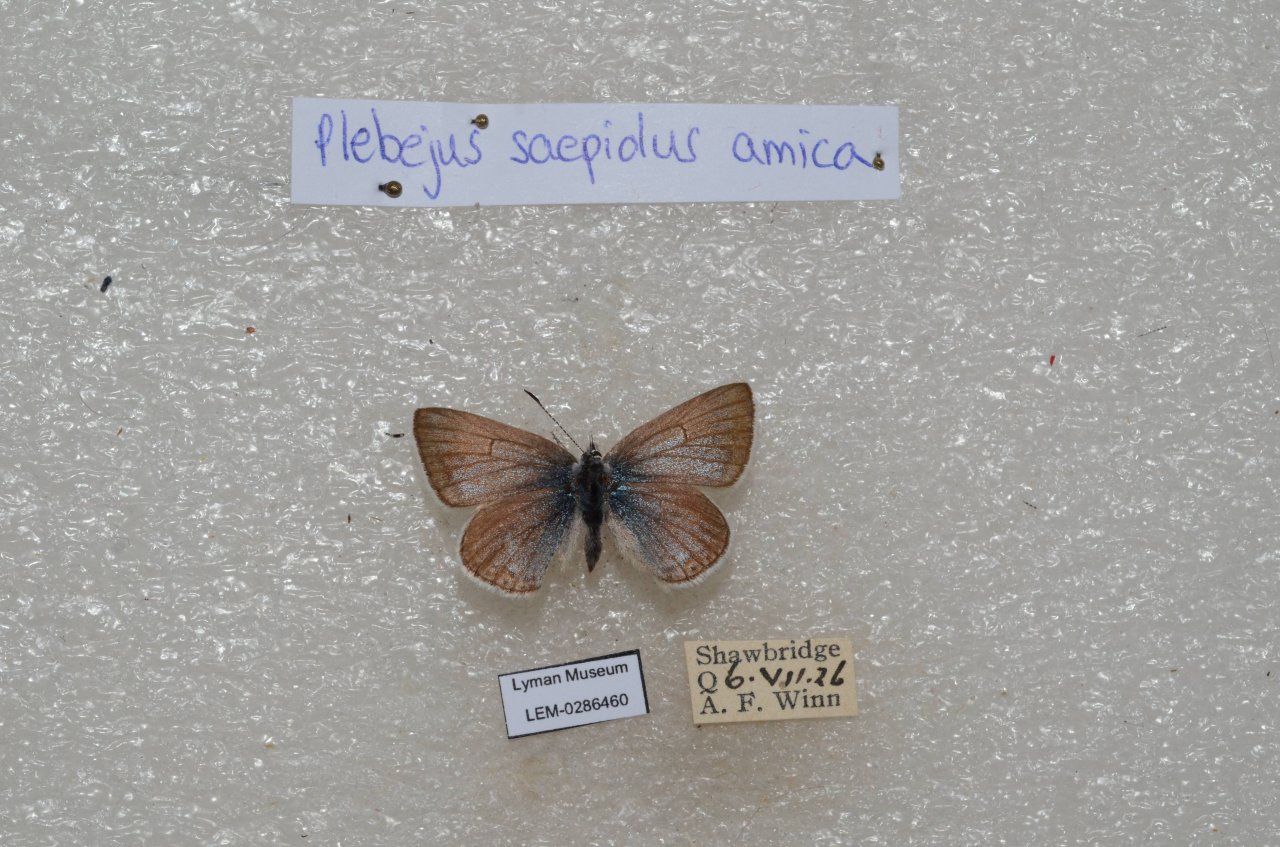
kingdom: Animalia
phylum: Arthropoda
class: Insecta
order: Lepidoptera
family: Lycaenidae
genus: Plebejus
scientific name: Plebejus saepiolus
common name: Greenish Blue
